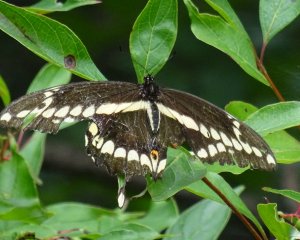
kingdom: Animalia
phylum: Arthropoda
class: Insecta
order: Lepidoptera
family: Papilionidae
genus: Papilio
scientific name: Papilio cresphontes
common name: Eastern Giant Swallowtail
